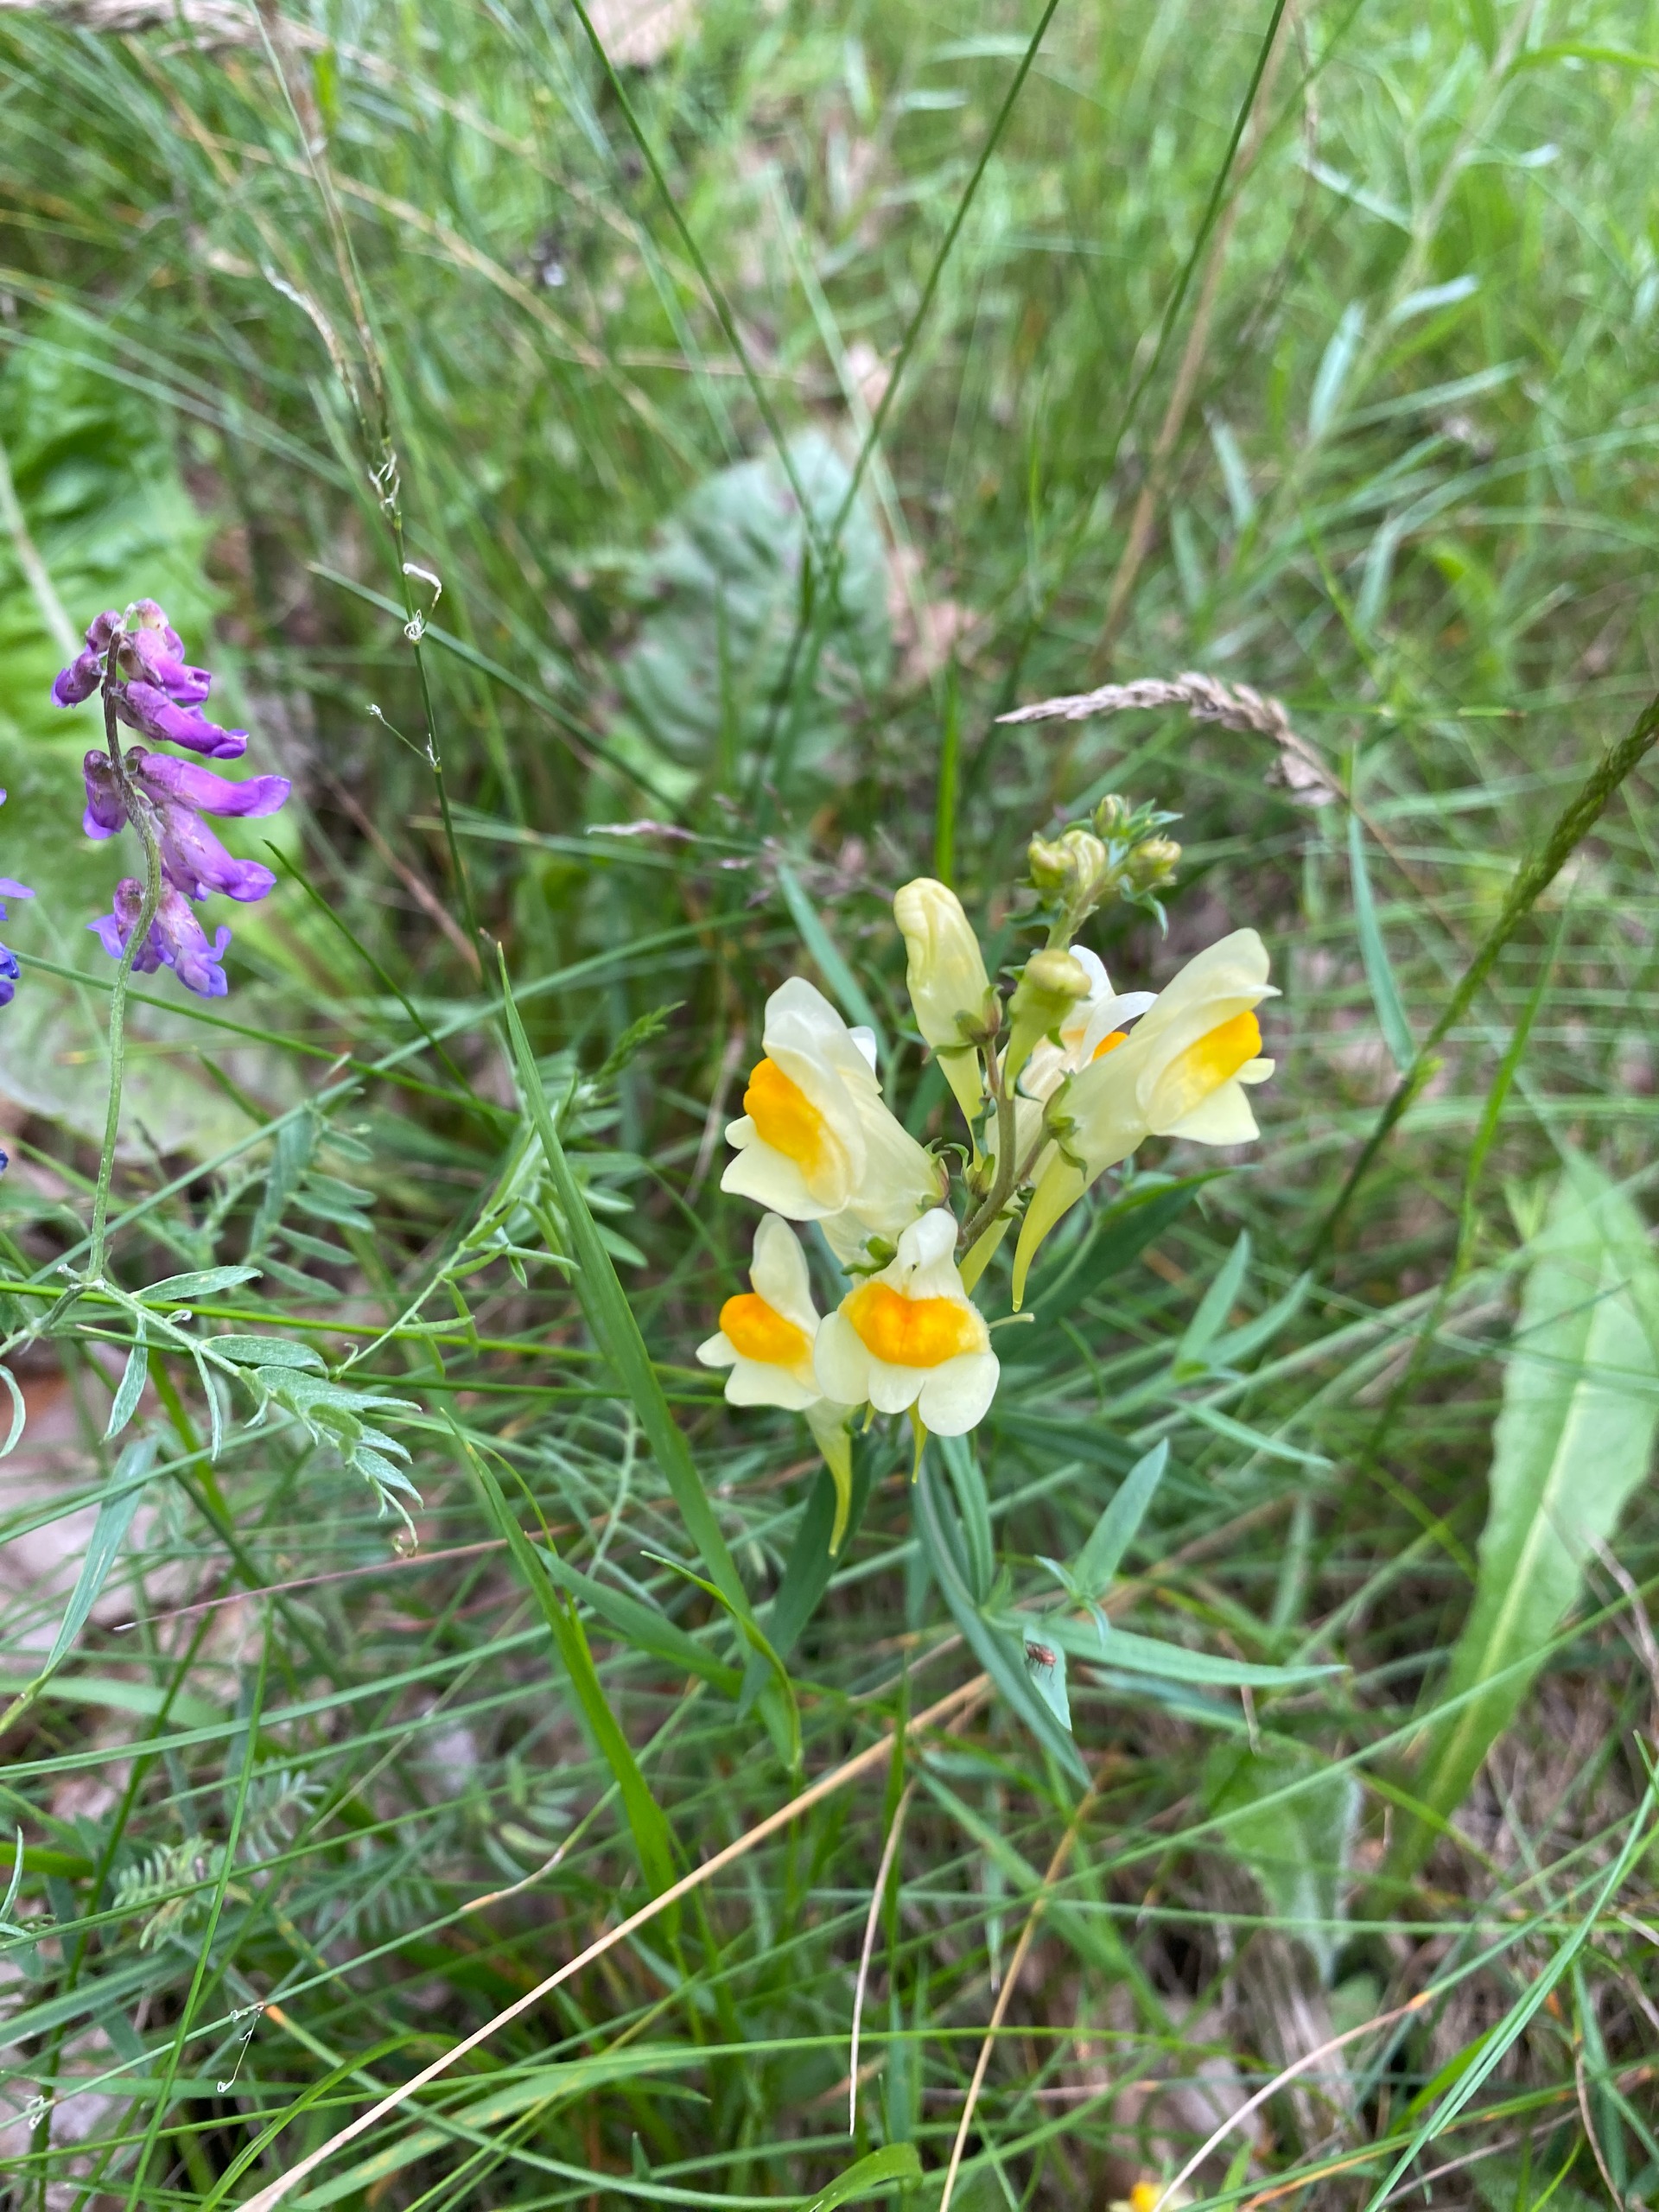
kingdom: Plantae
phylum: Tracheophyta
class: Magnoliopsida
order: Lamiales
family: Plantaginaceae
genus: Linaria
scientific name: Linaria vulgaris
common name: Almindelig torskemund
